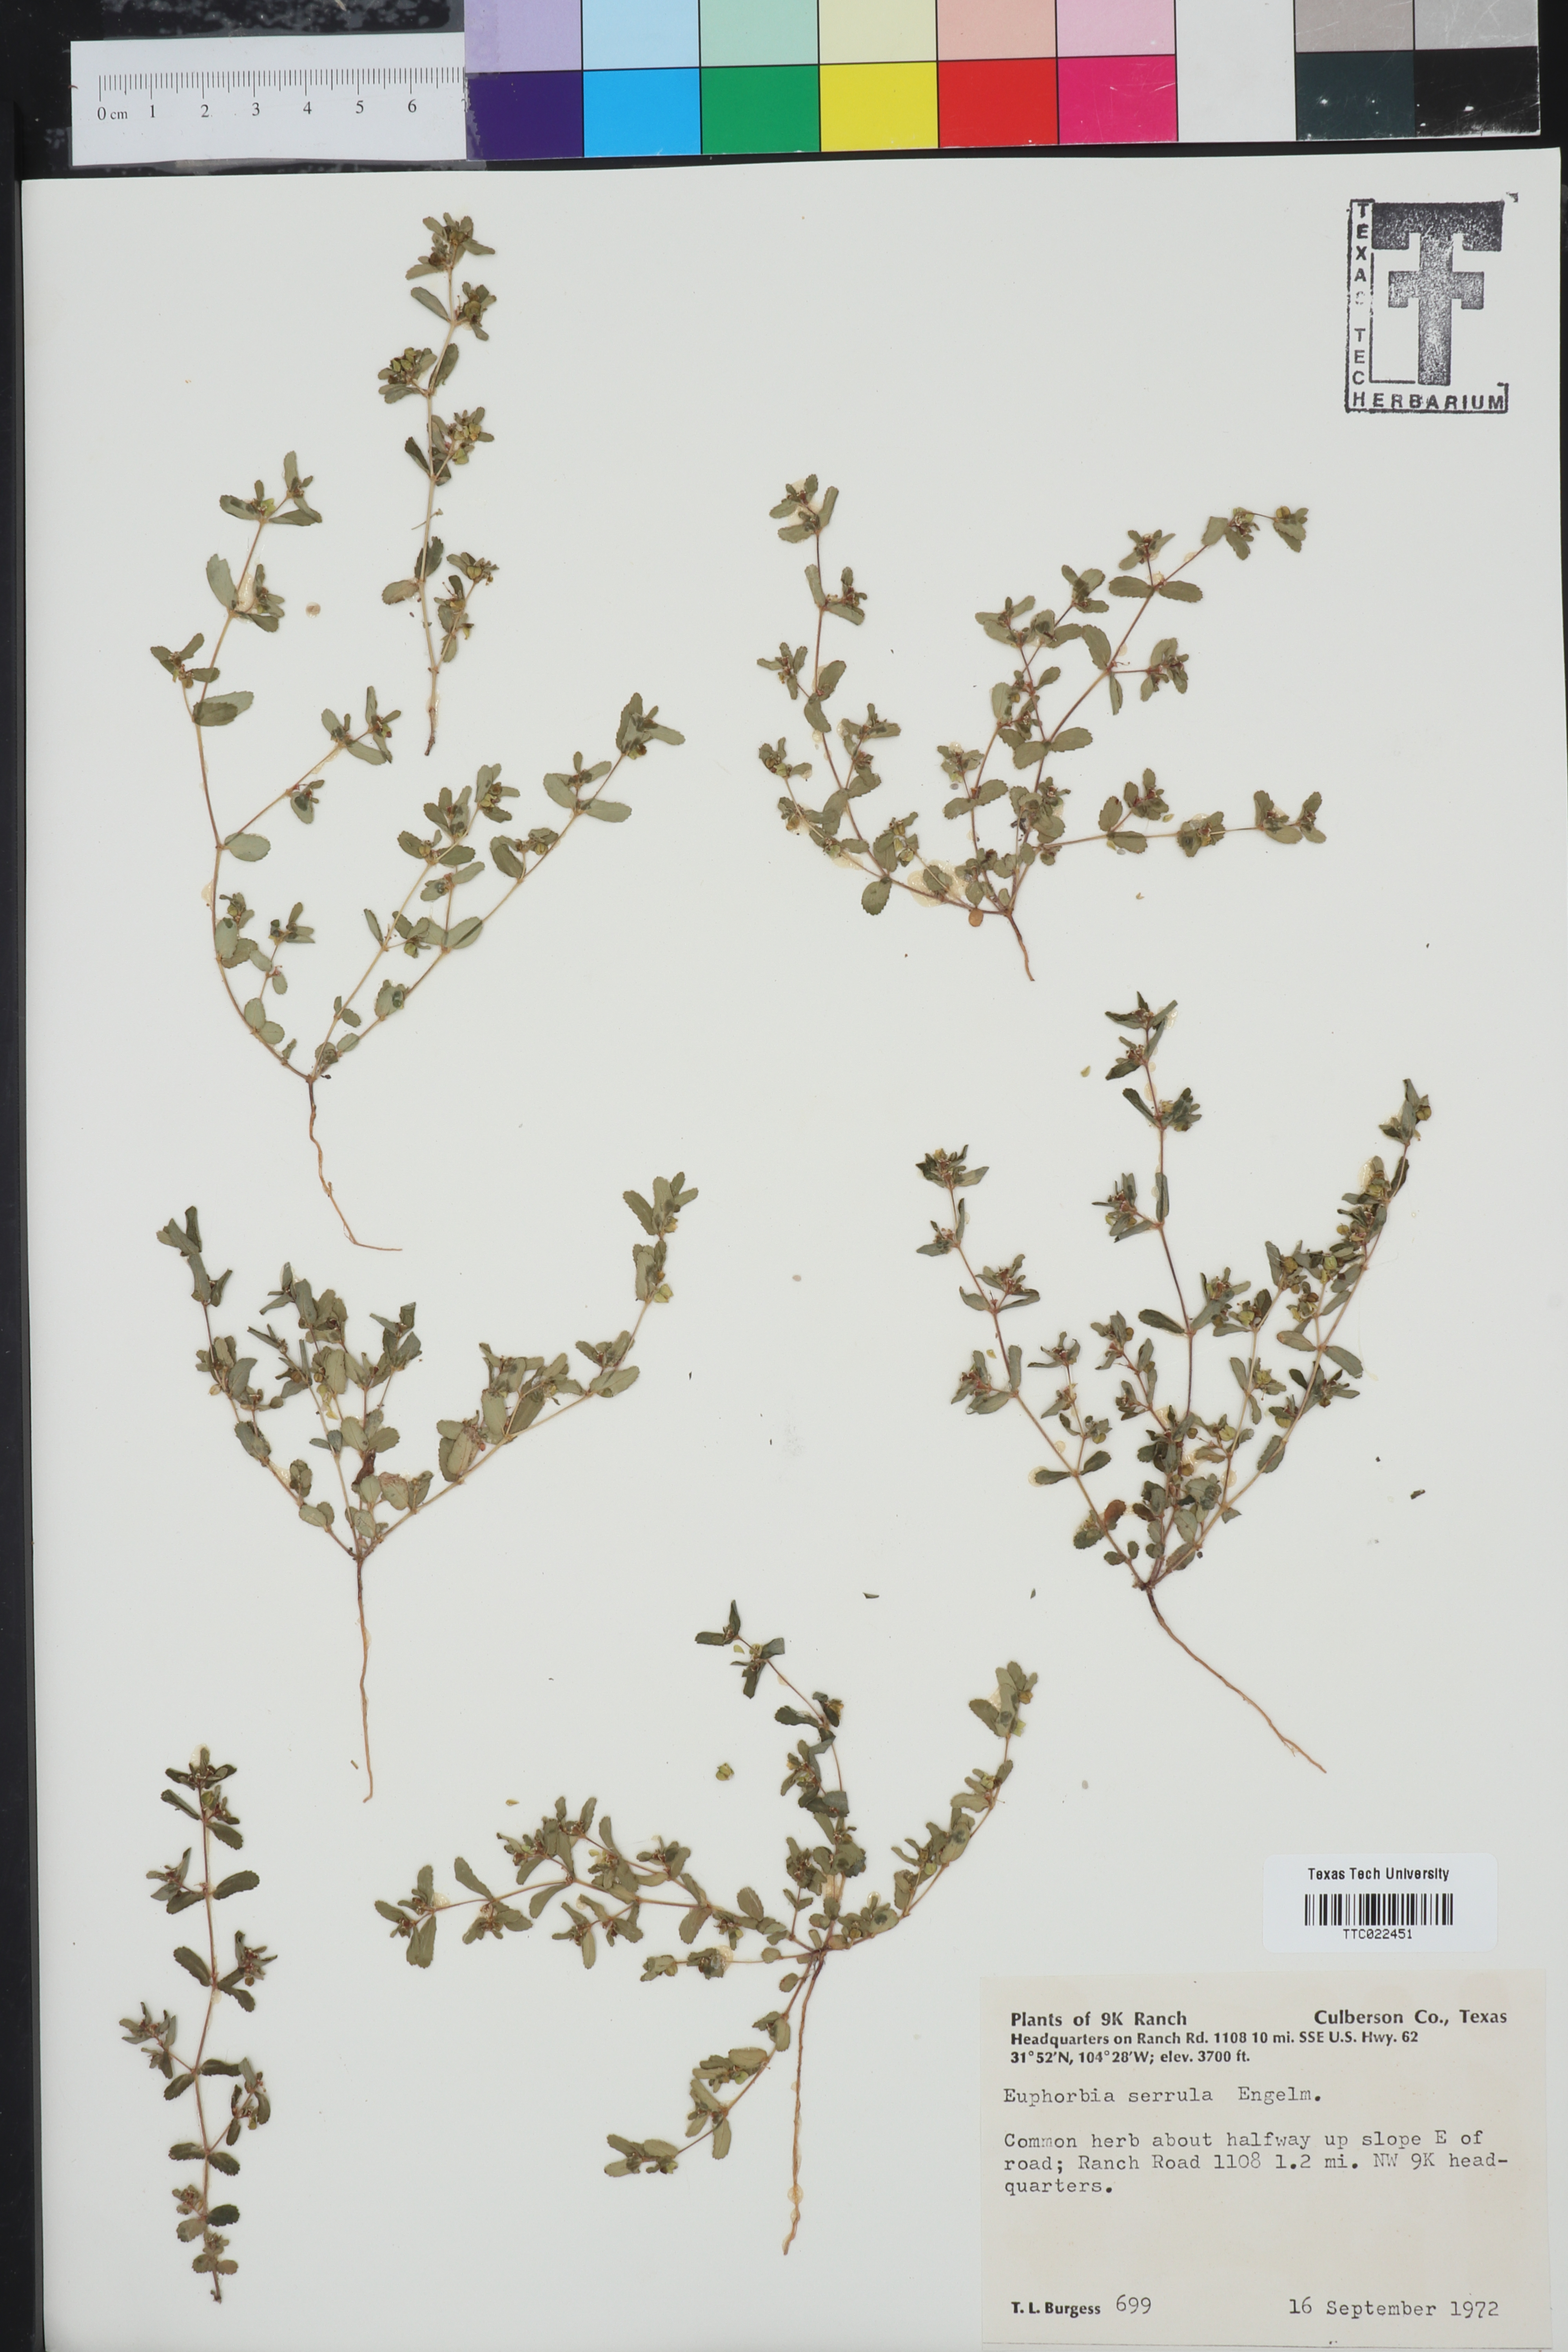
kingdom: Plantae
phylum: Tracheophyta
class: Magnoliopsida
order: Malpighiales
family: Euphorbiaceae
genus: Euphorbia
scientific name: Euphorbia serrula
